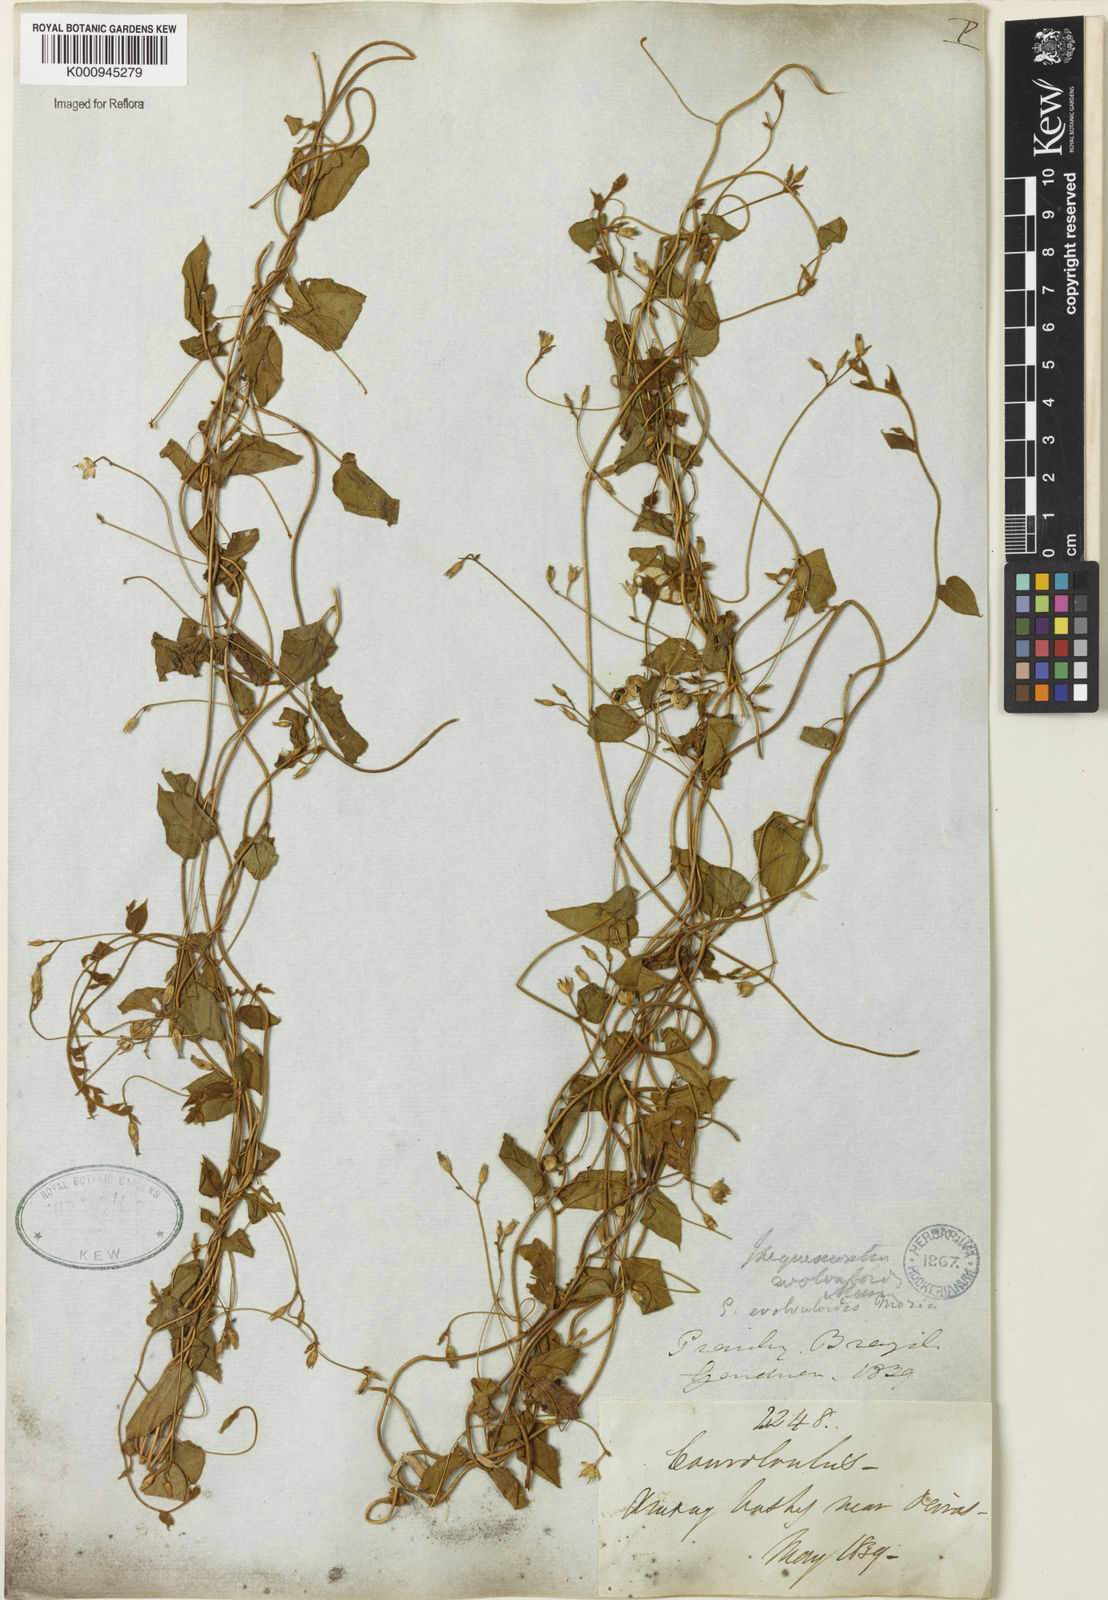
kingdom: Plantae
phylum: Tracheophyta
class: Magnoliopsida
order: Solanales
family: Convolvulaceae
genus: Jacquemontia
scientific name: Jacquemontia evolvuloides
